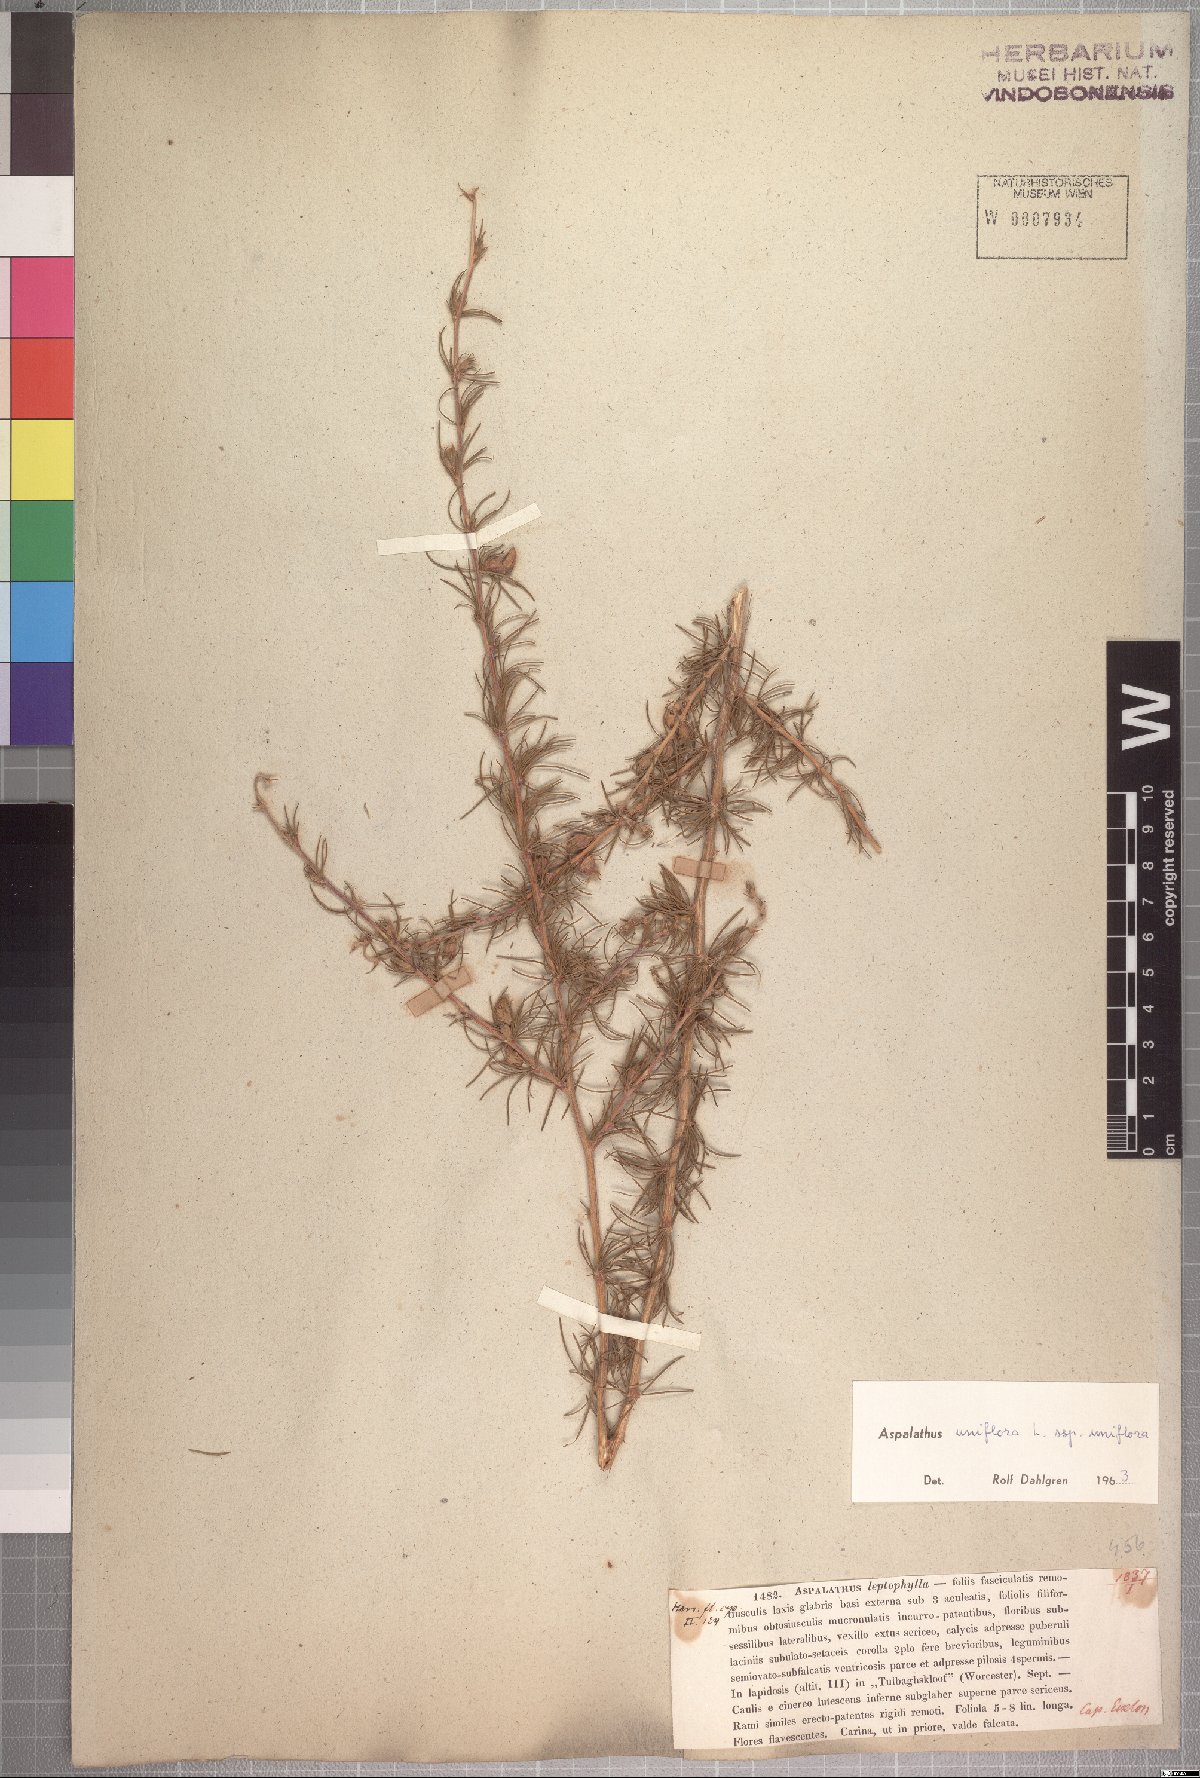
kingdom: Plantae
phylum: Tracheophyta
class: Magnoliopsida
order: Fabales
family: Fabaceae
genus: Aspalathus
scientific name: Aspalathus uniflora
